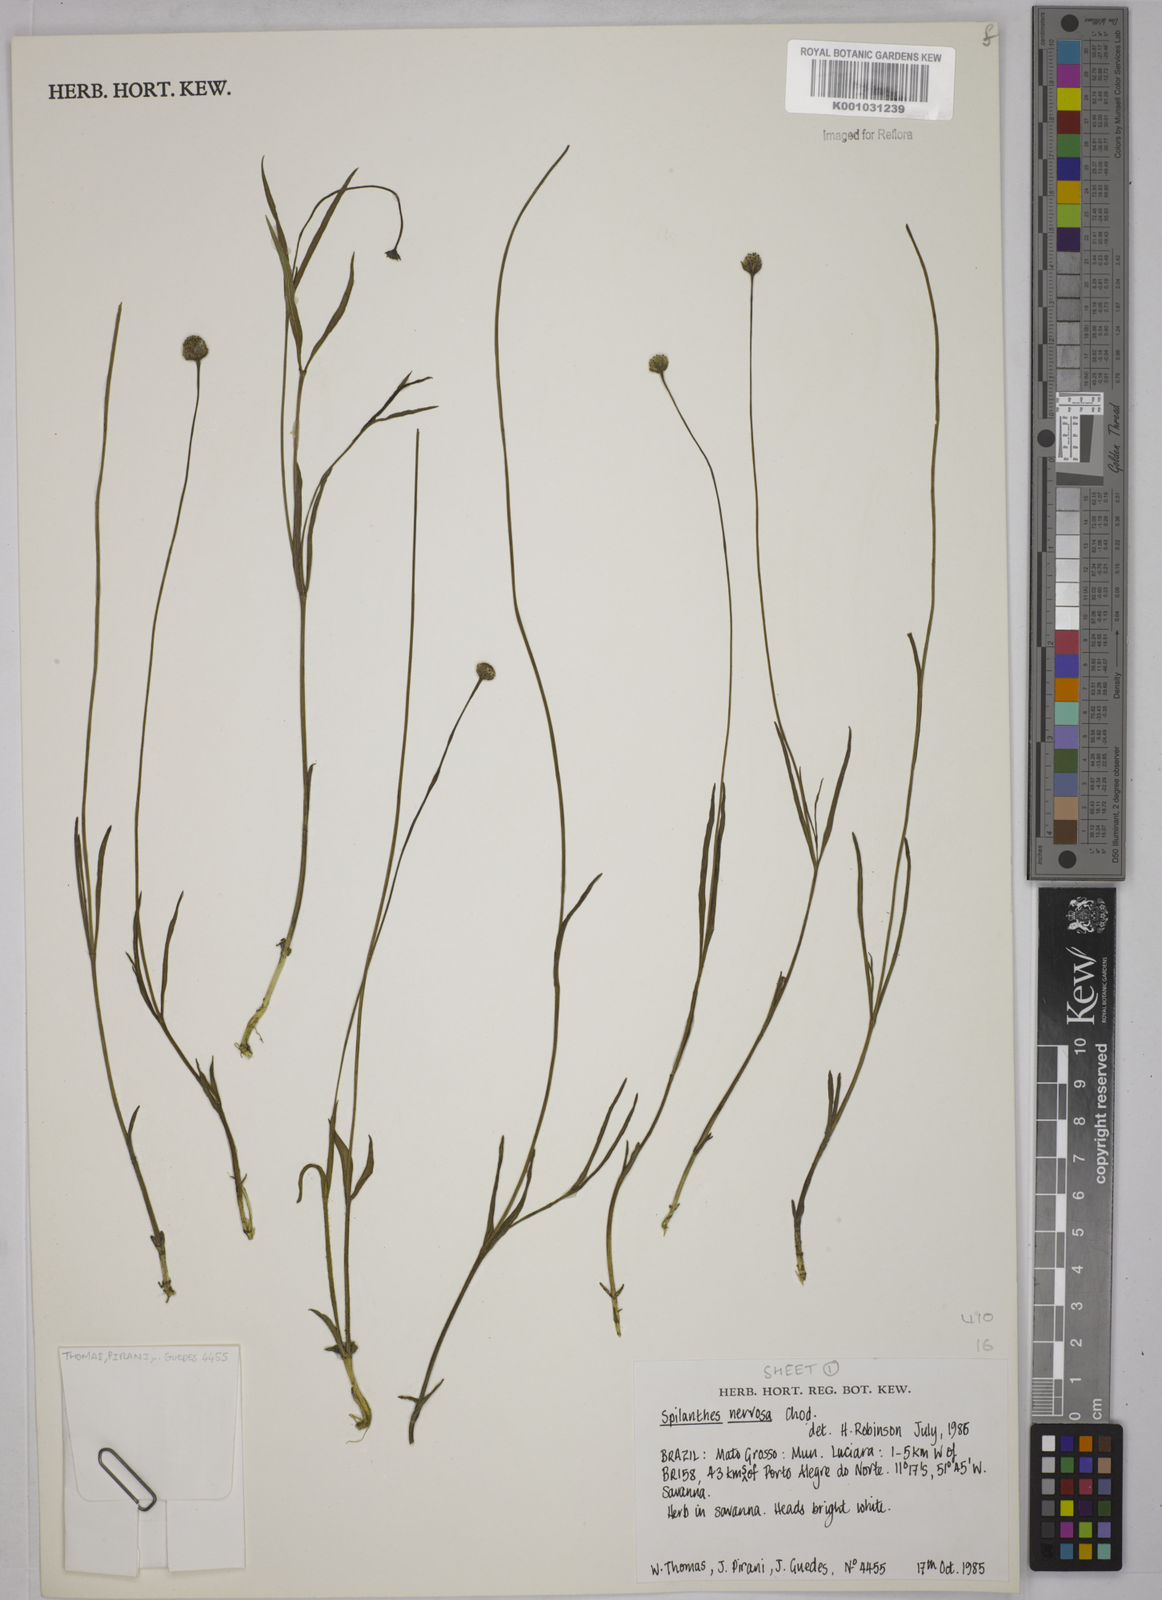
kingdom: Plantae
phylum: Tracheophyta
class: Magnoliopsida
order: Asterales
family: Asteraceae
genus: Spilanthes
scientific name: Spilanthes nervosa
